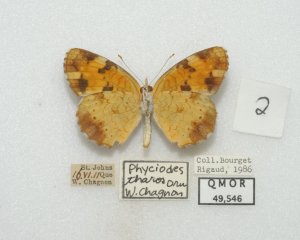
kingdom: Animalia
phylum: Arthropoda
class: Insecta
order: Lepidoptera
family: Nymphalidae
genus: Phyciodes
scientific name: Phyciodes tharos
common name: Northern Crescent
